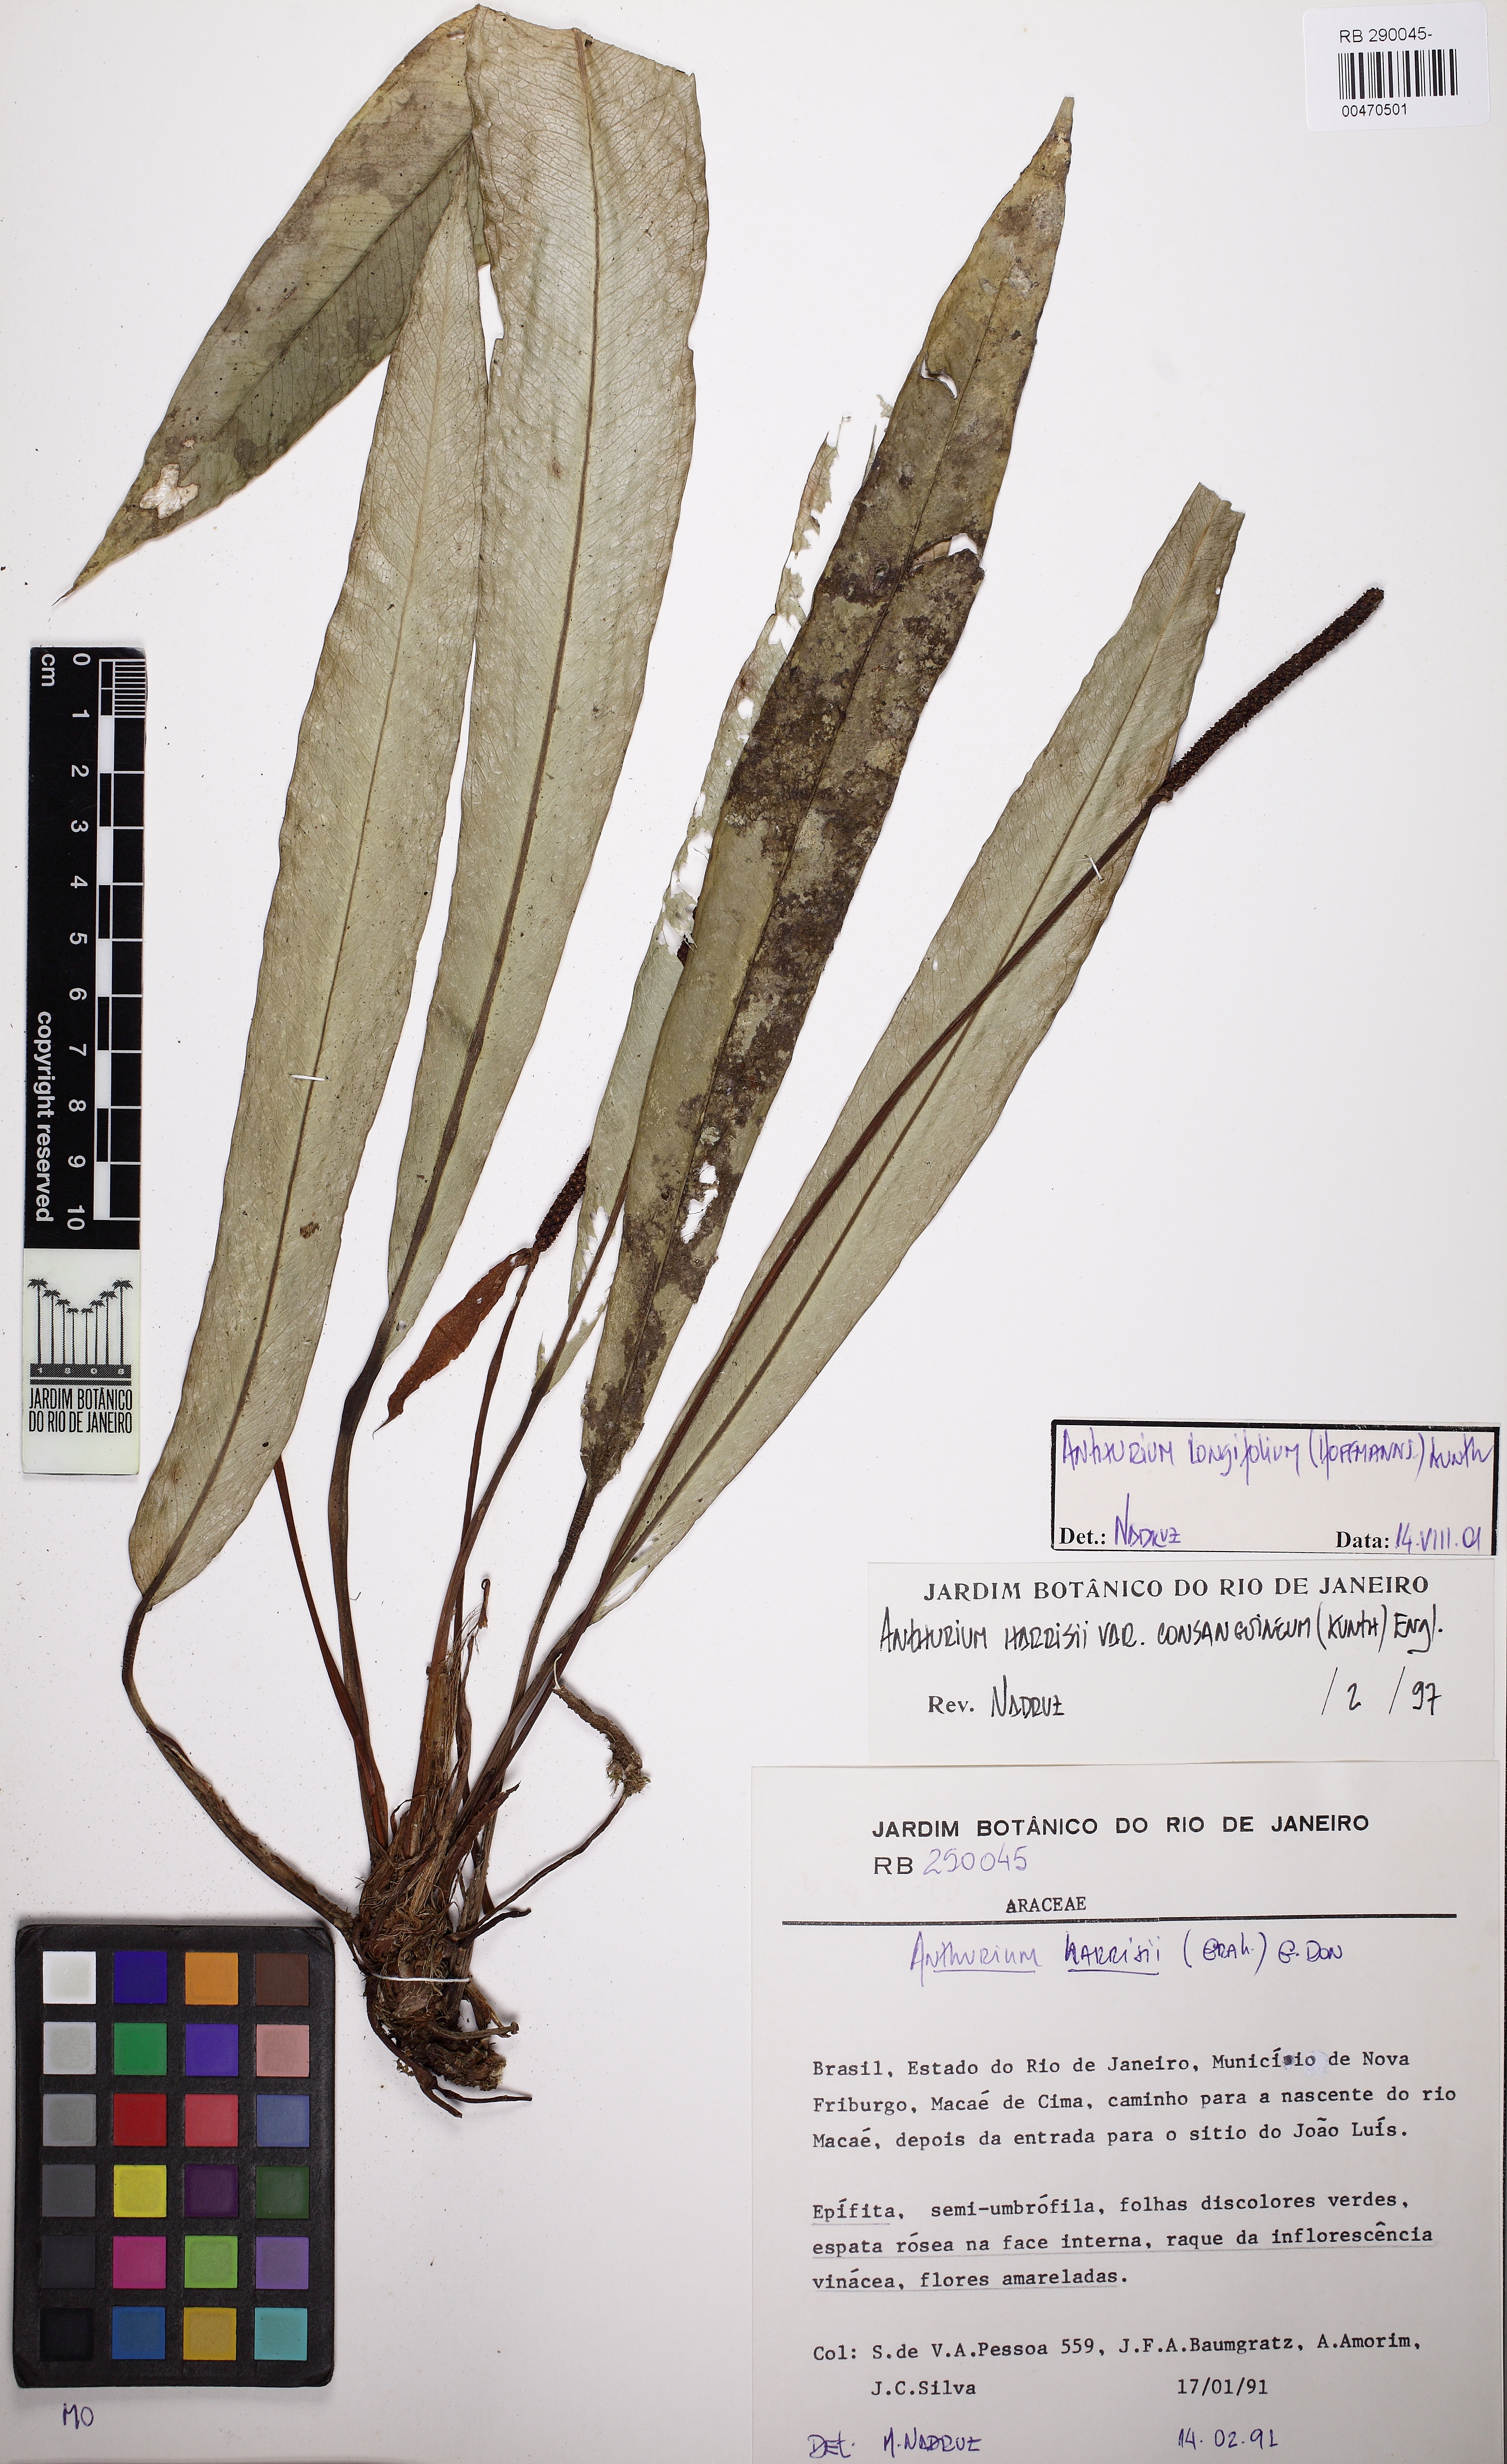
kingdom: Plantae
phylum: Tracheophyta
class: Liliopsida
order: Alismatales
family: Araceae
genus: Anthurium
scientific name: Anthurium longifolium
